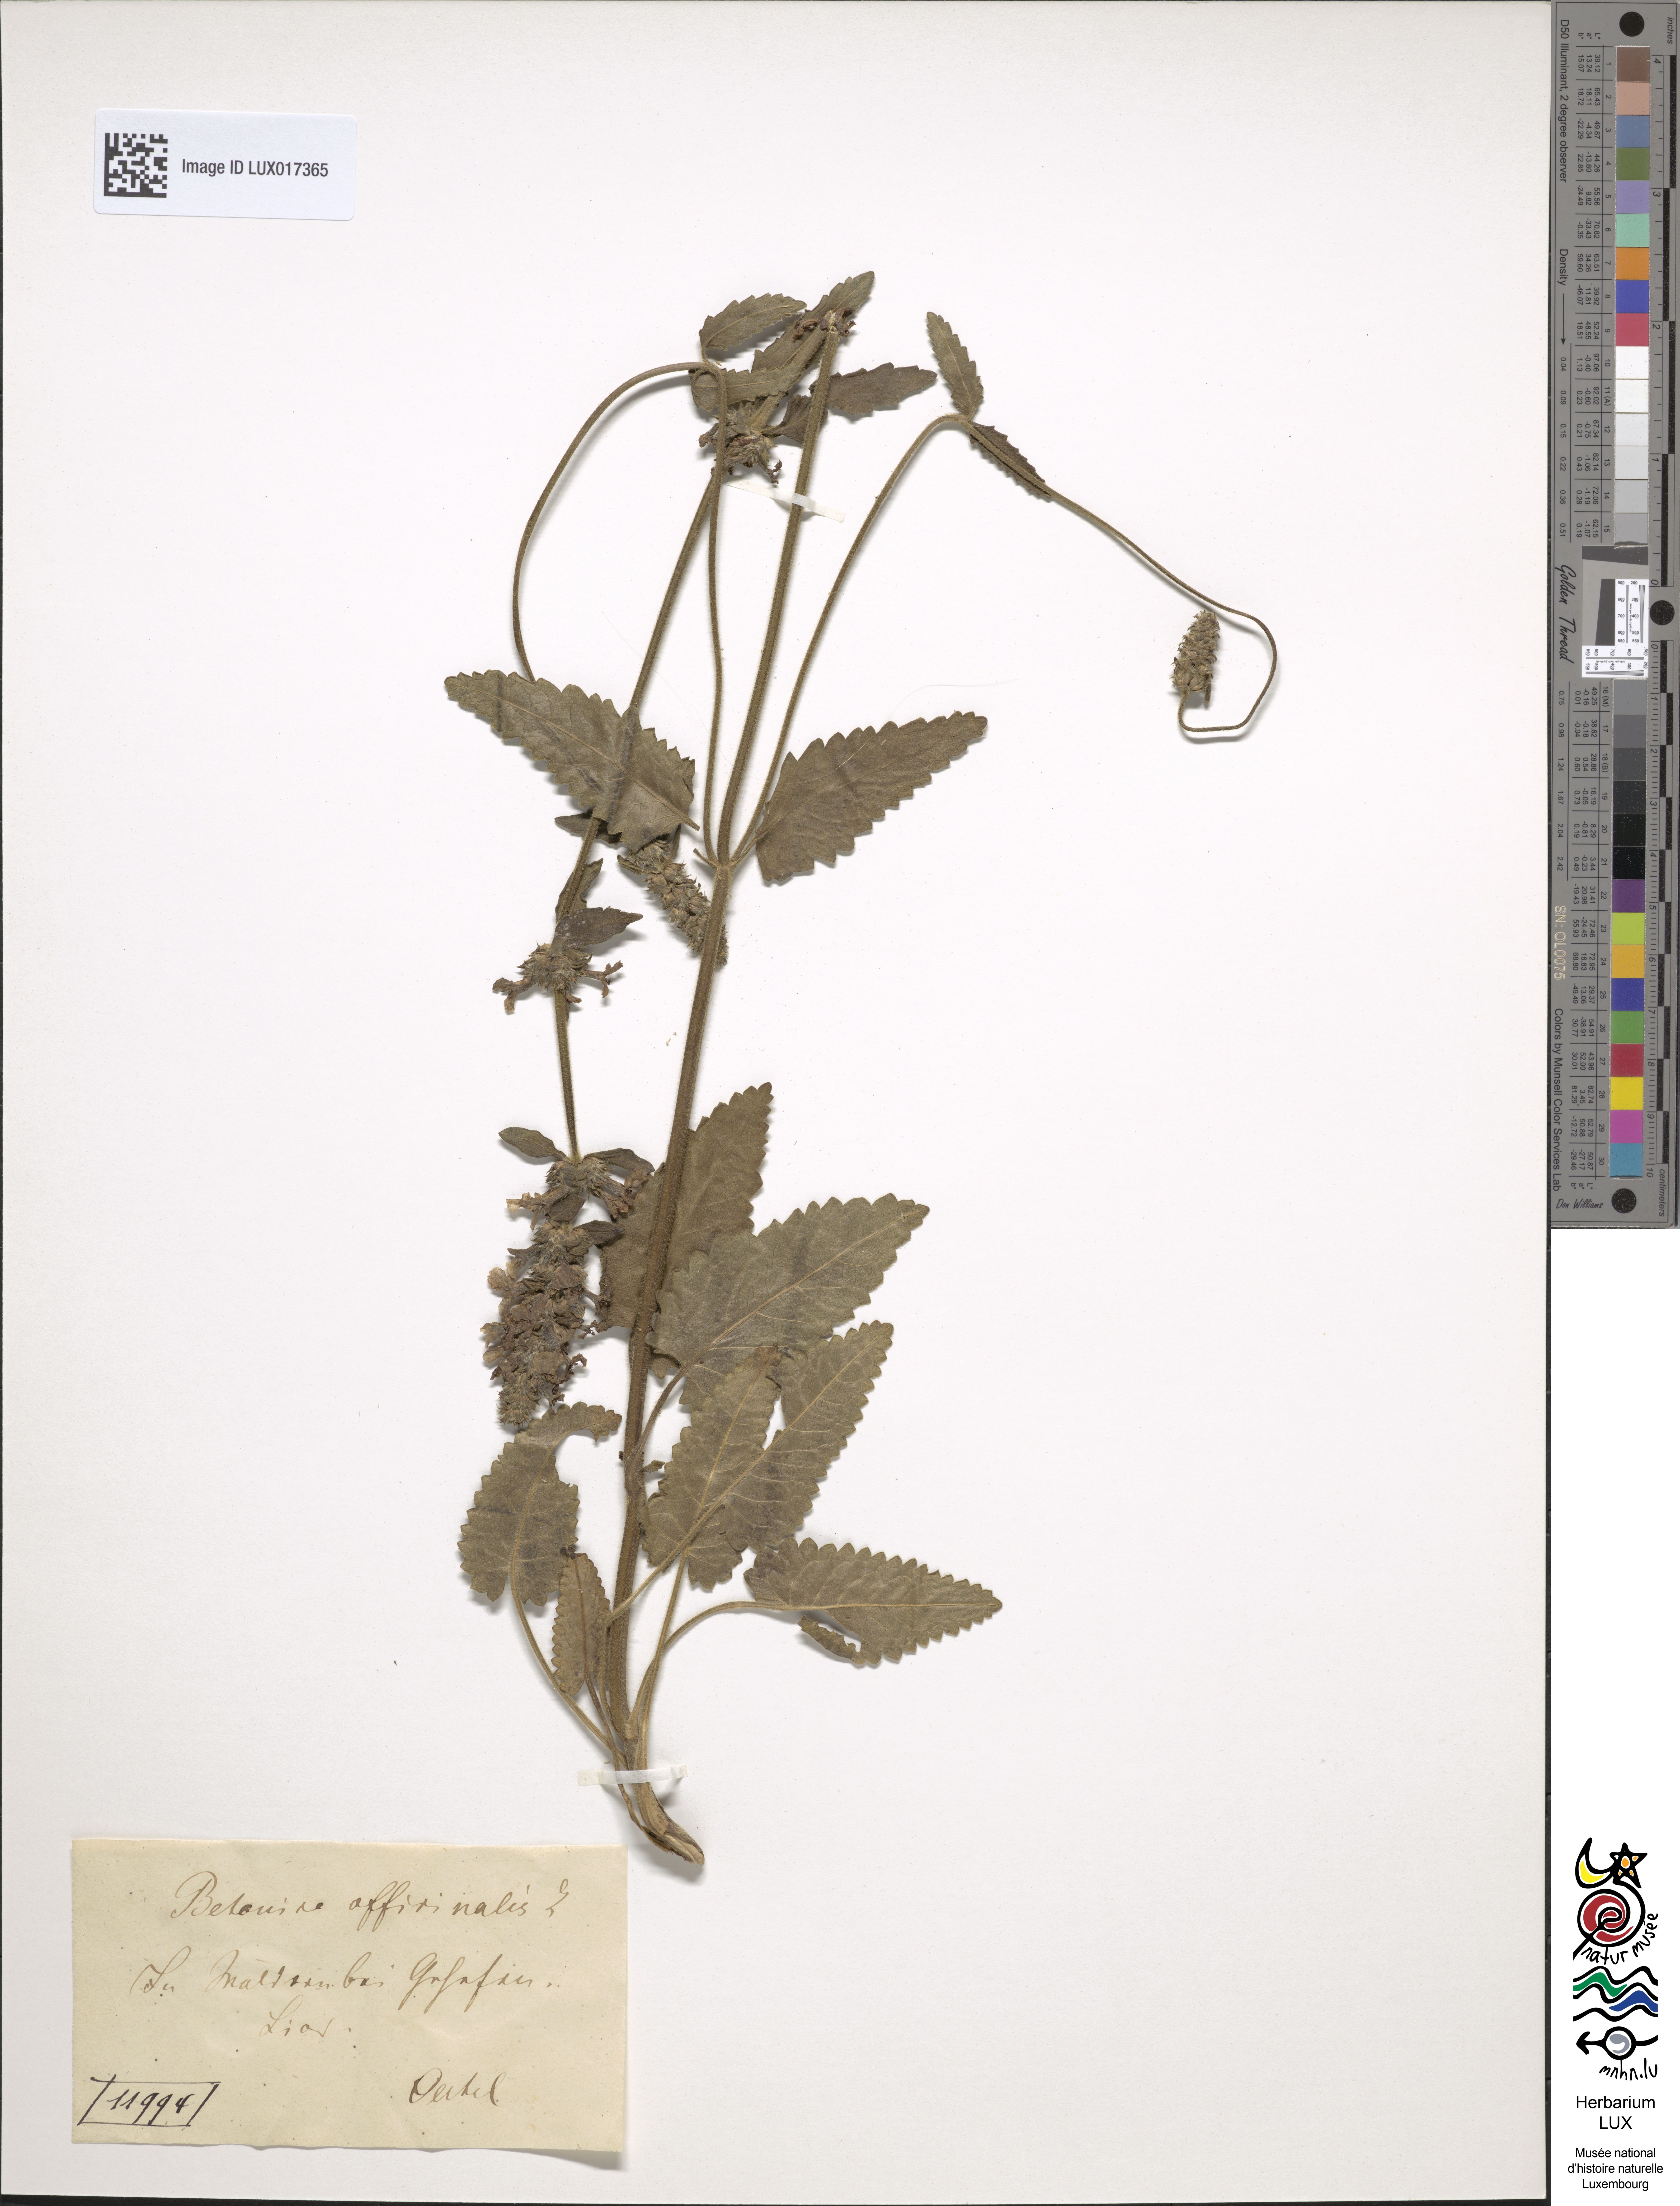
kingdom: Plantae
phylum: Tracheophyta
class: Magnoliopsida
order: Lamiales
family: Lamiaceae
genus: Betonica
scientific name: Betonica officinalis
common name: Bishop's-wort
